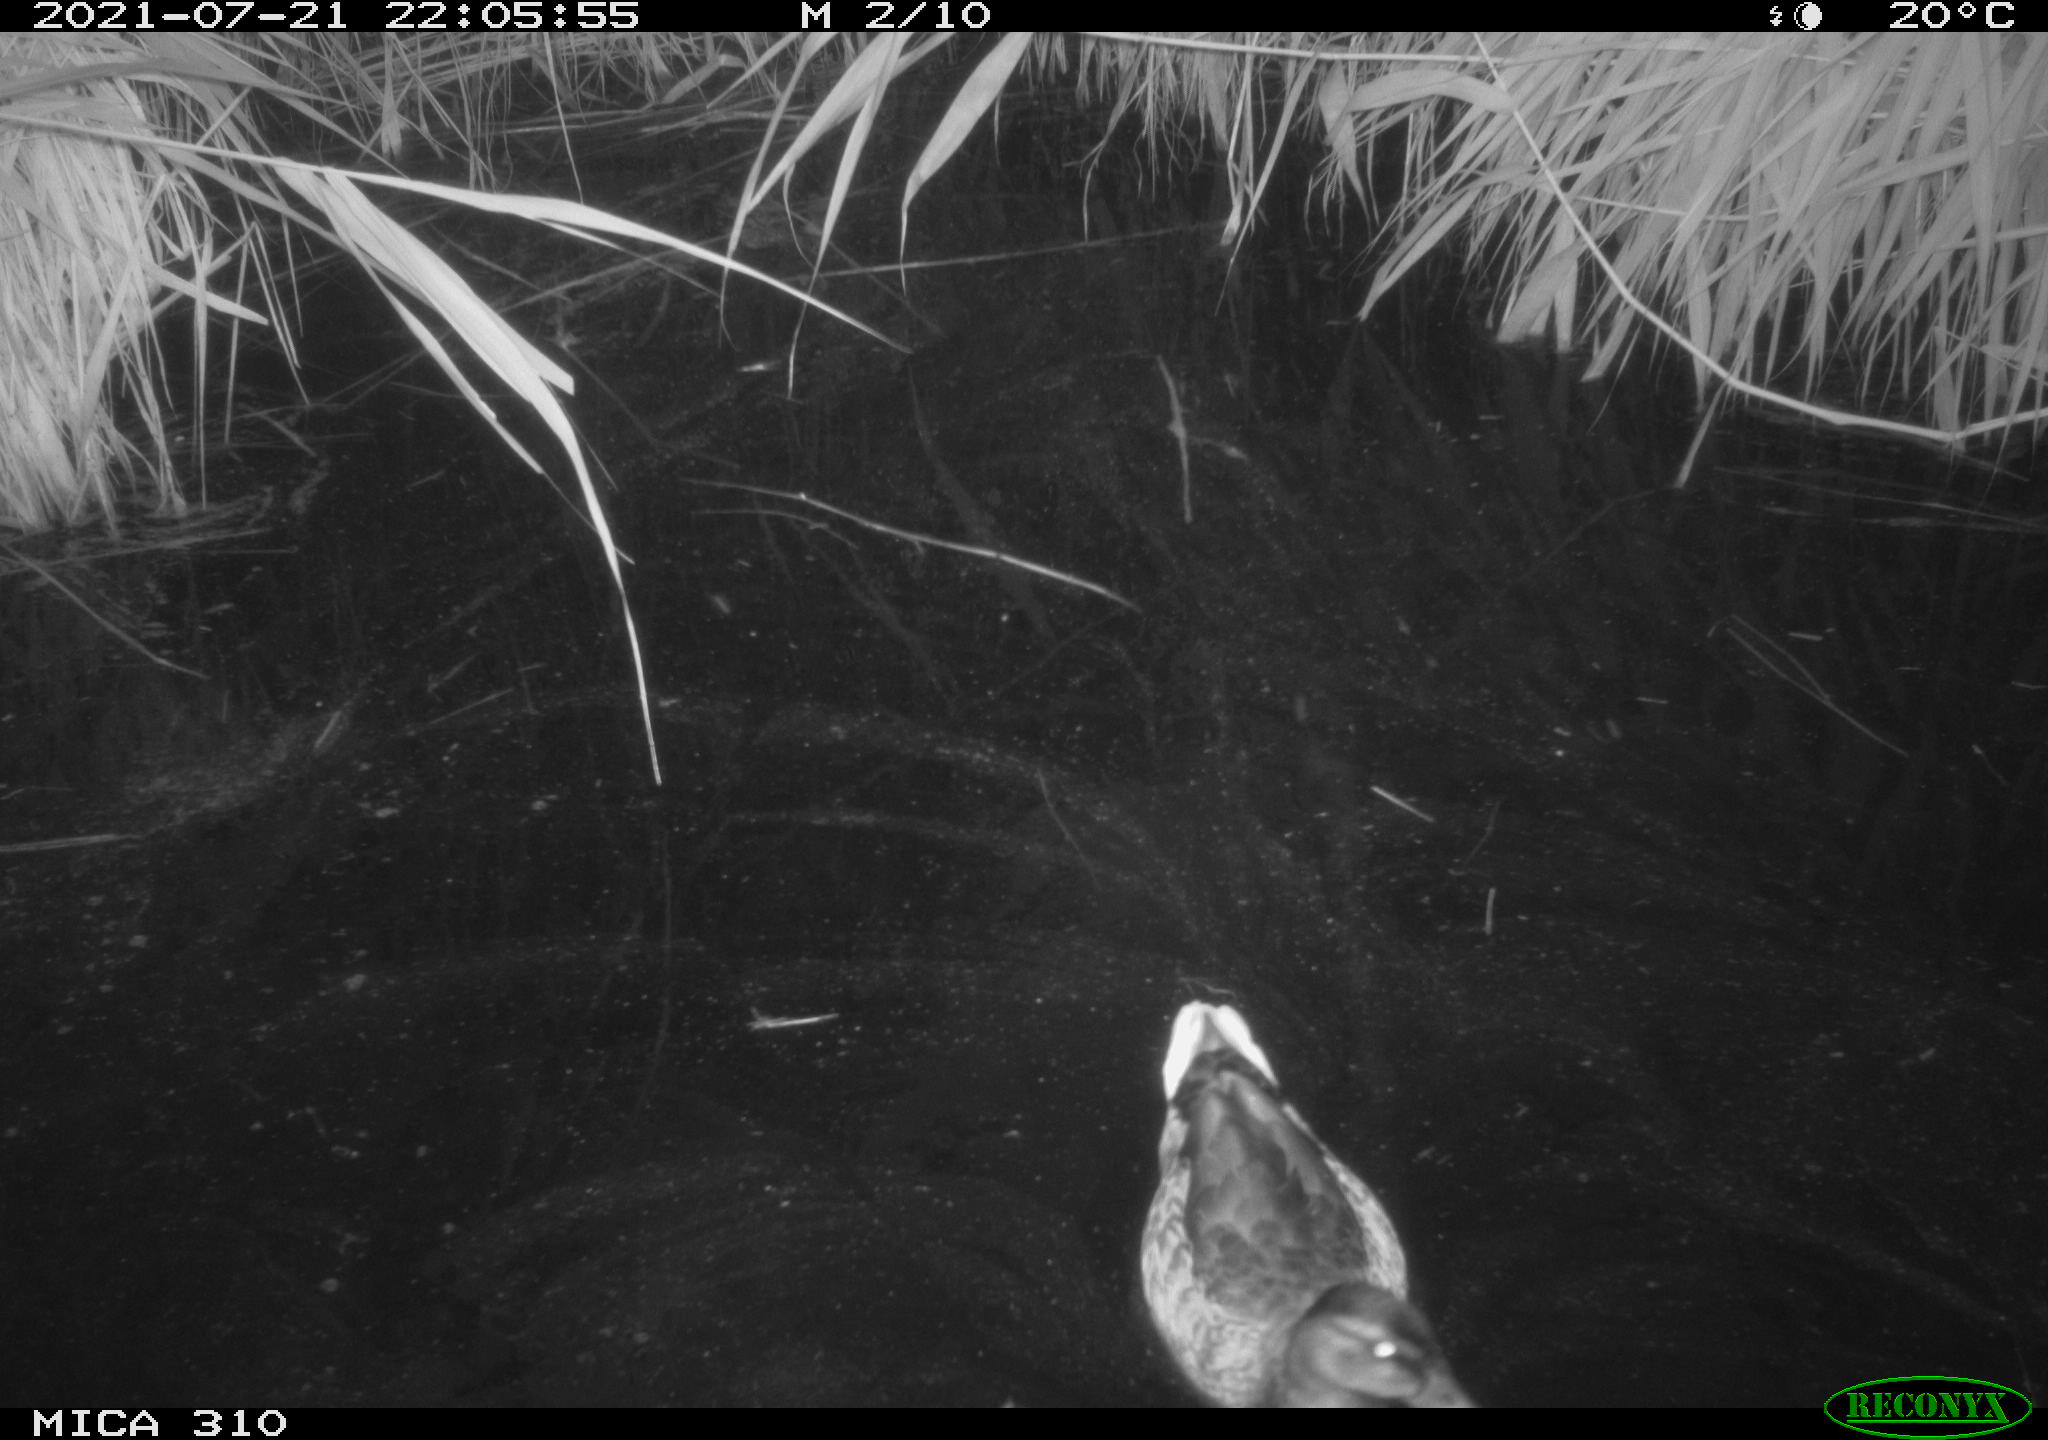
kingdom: Animalia
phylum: Chordata
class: Aves
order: Anseriformes
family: Anatidae
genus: Anas
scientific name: Anas platyrhynchos
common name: Mallard
